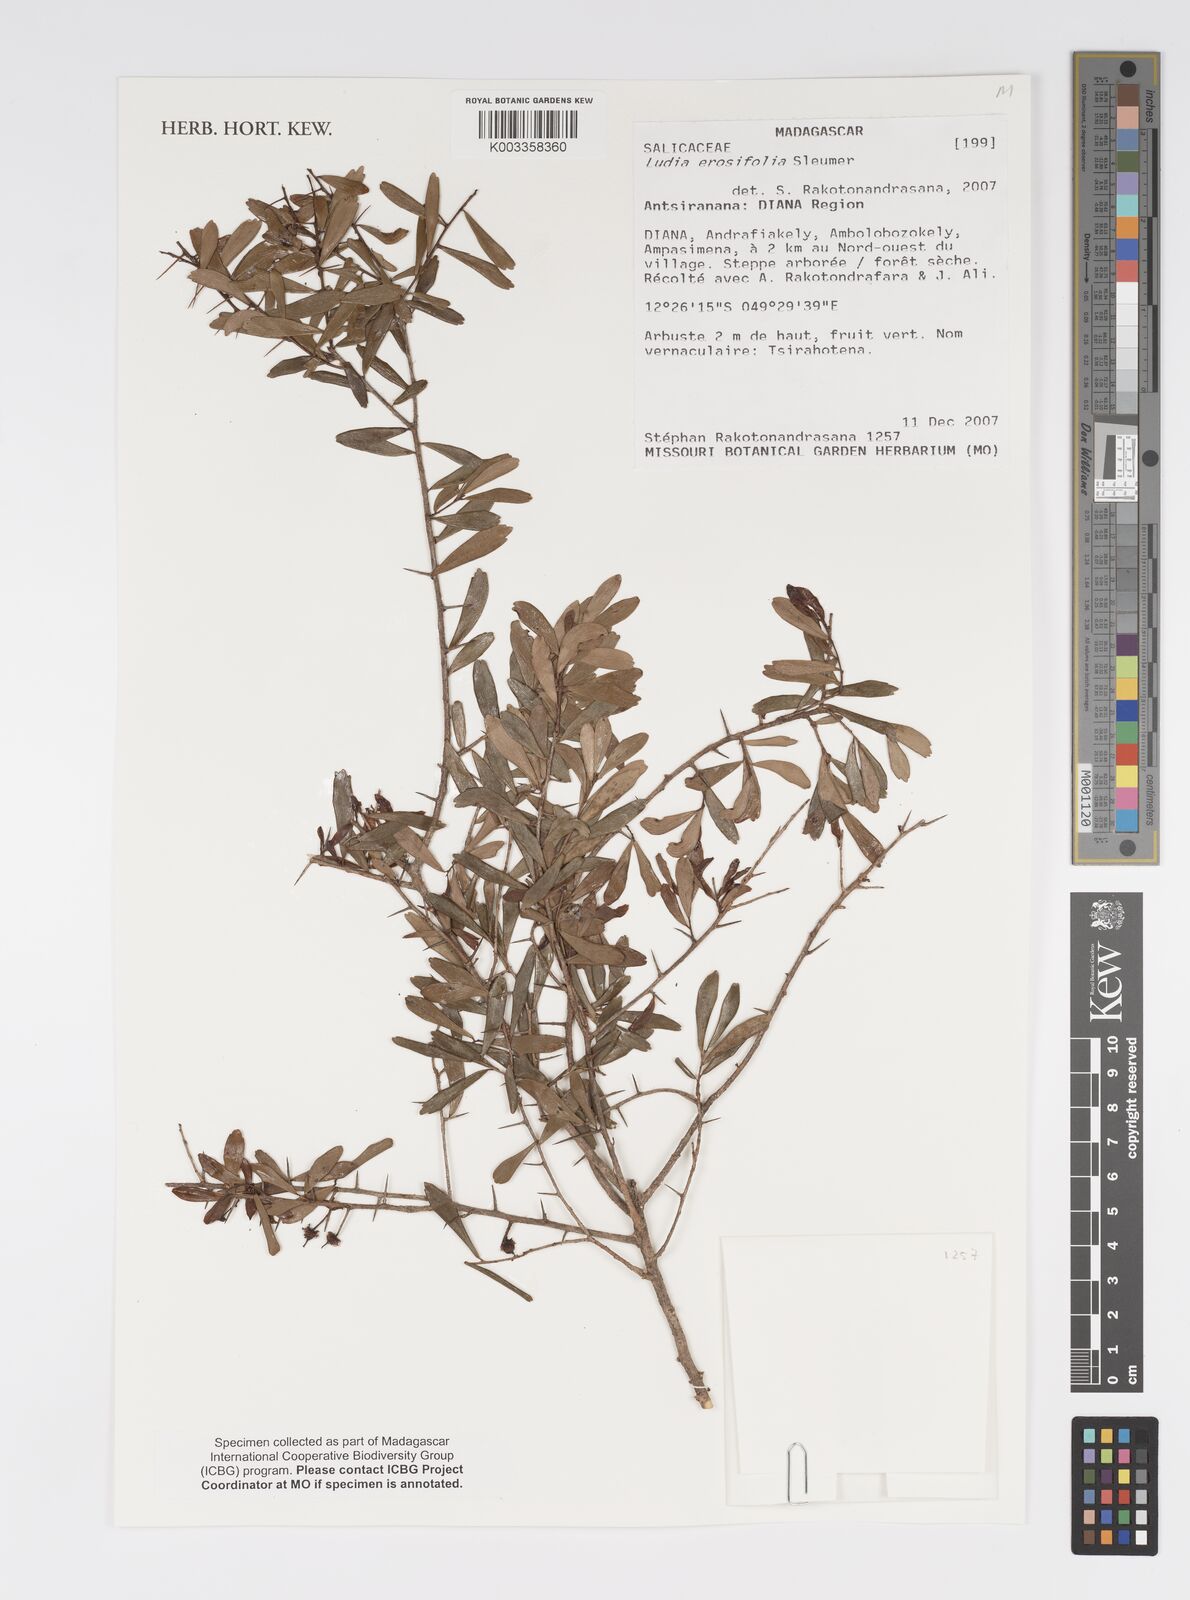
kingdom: Plantae
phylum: Tracheophyta
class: Magnoliopsida
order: Malpighiales
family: Salicaceae
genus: Ludia
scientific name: Ludia erosifolia
